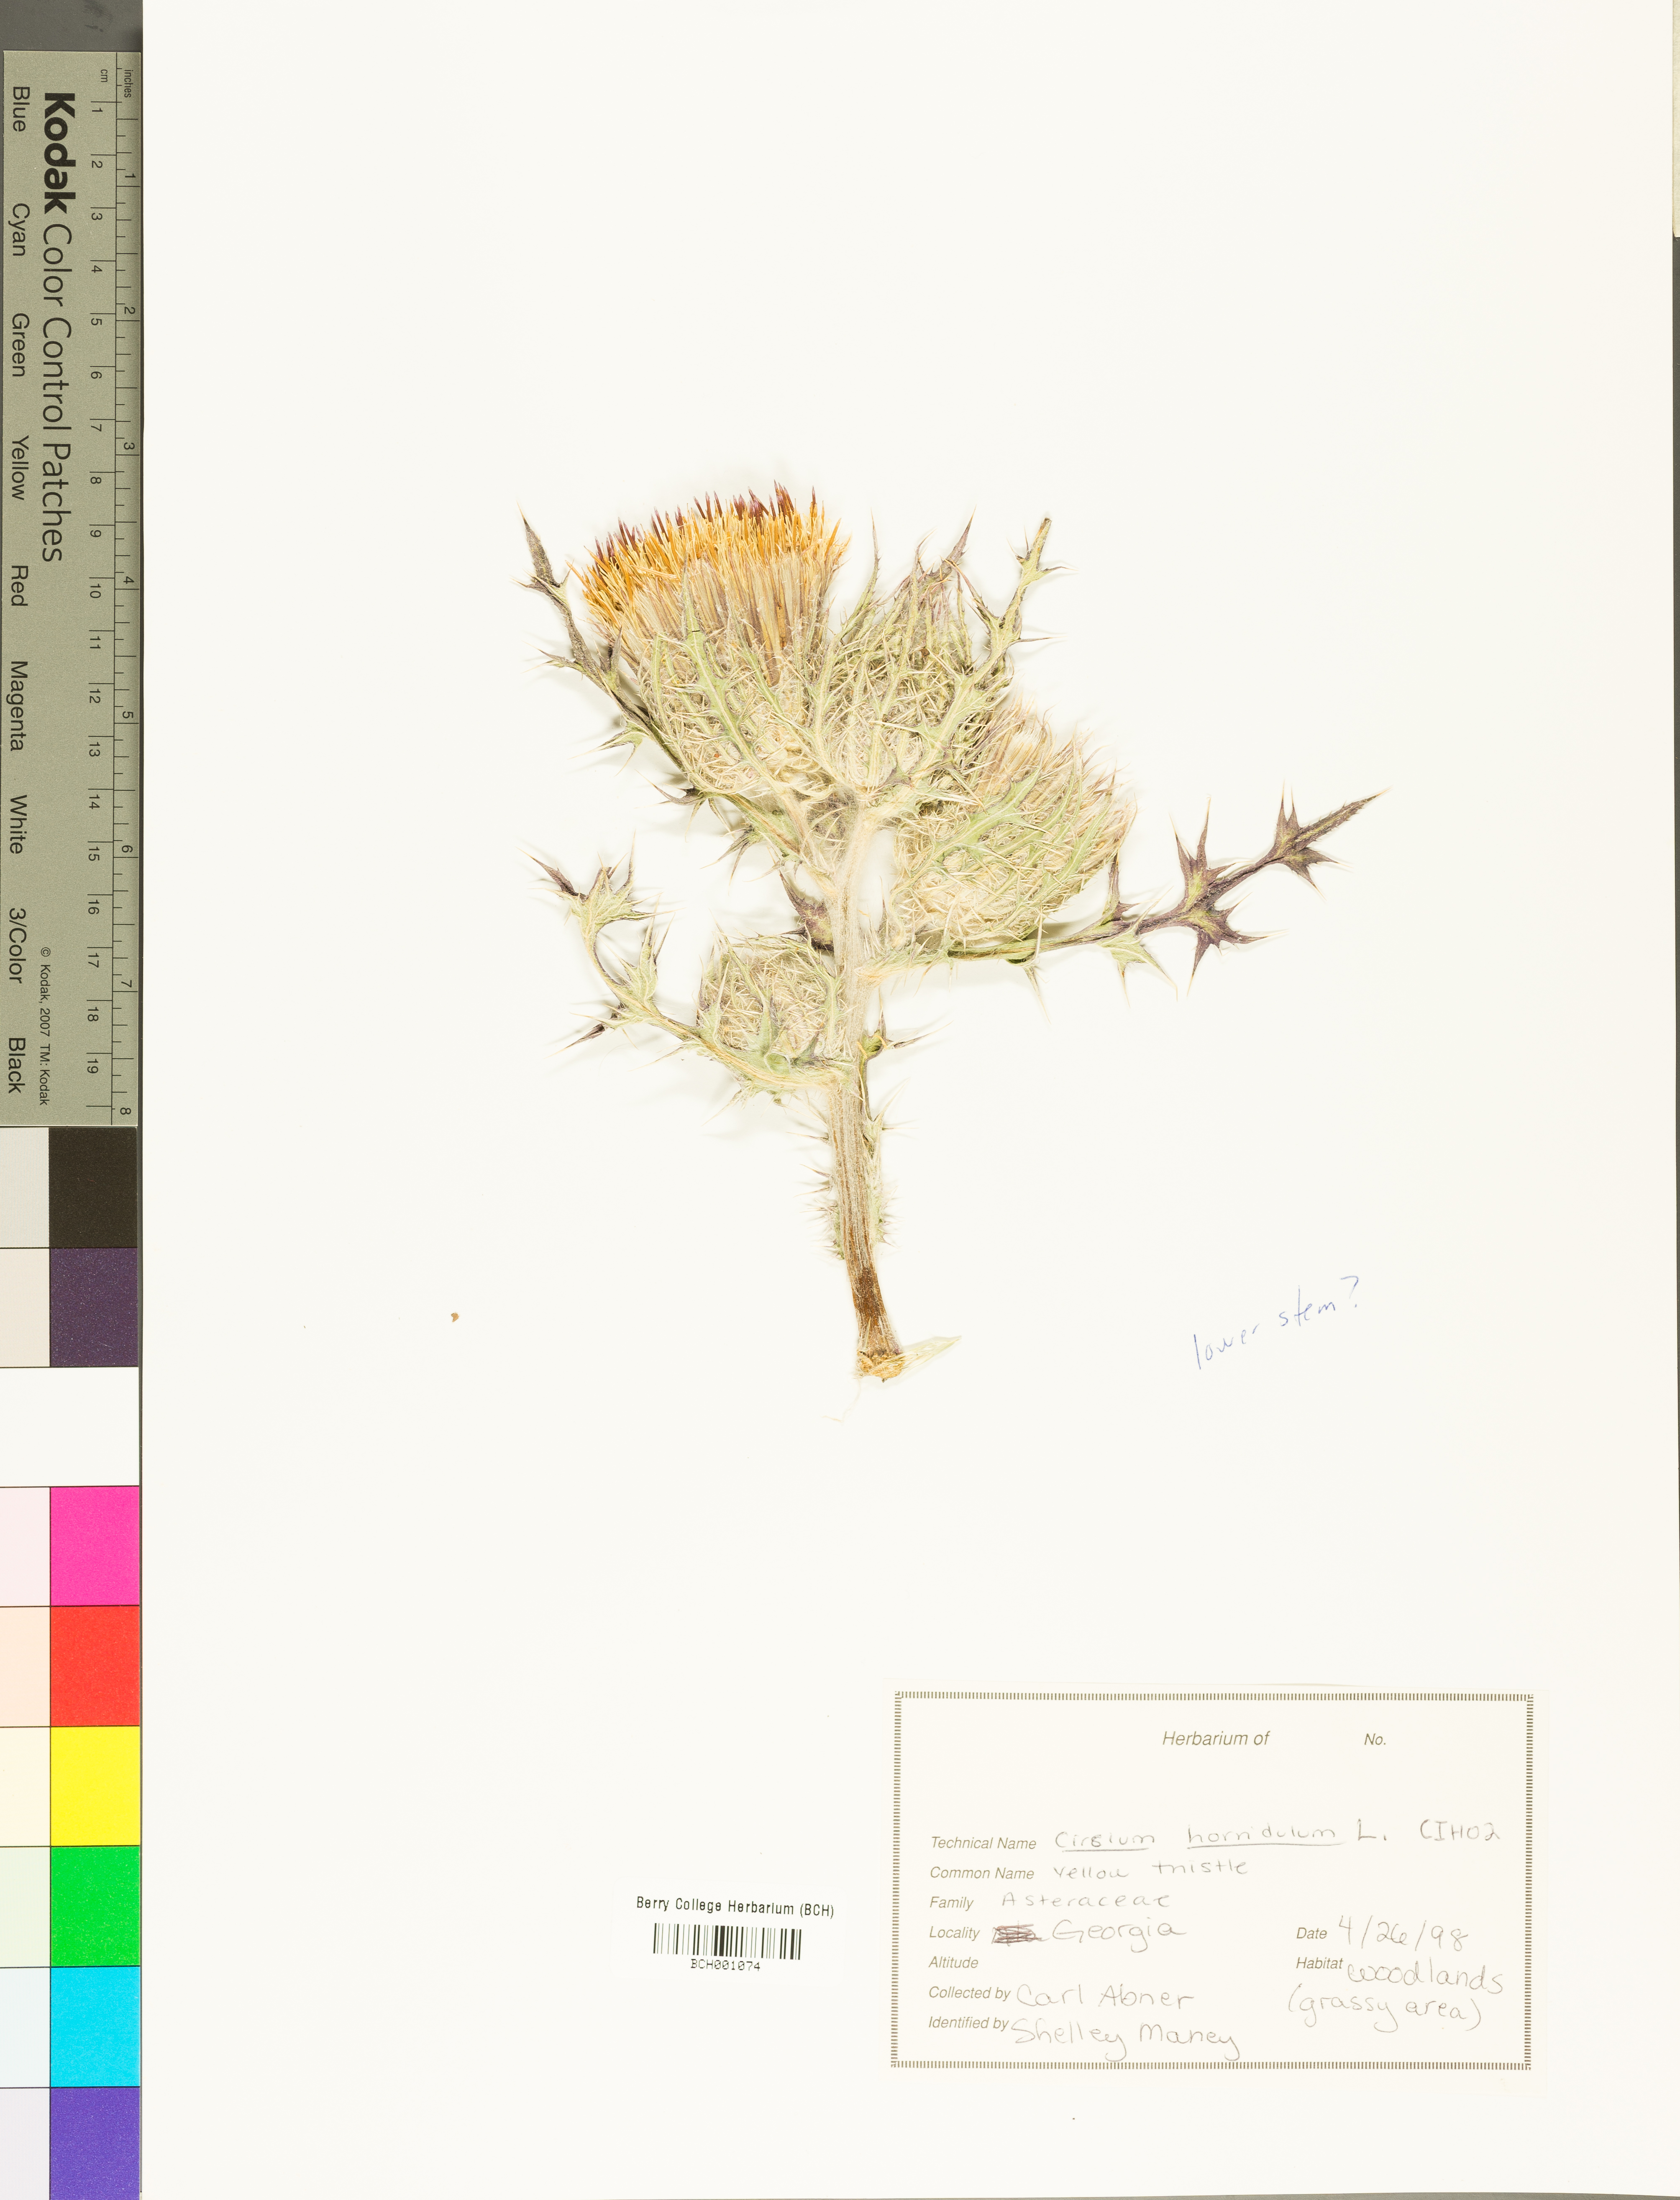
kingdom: Plantae
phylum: Tracheophyta
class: Magnoliopsida
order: Asterales
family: Asteraceae
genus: Cirsium
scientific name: Cirsium horridulum
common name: Bristly thistle
